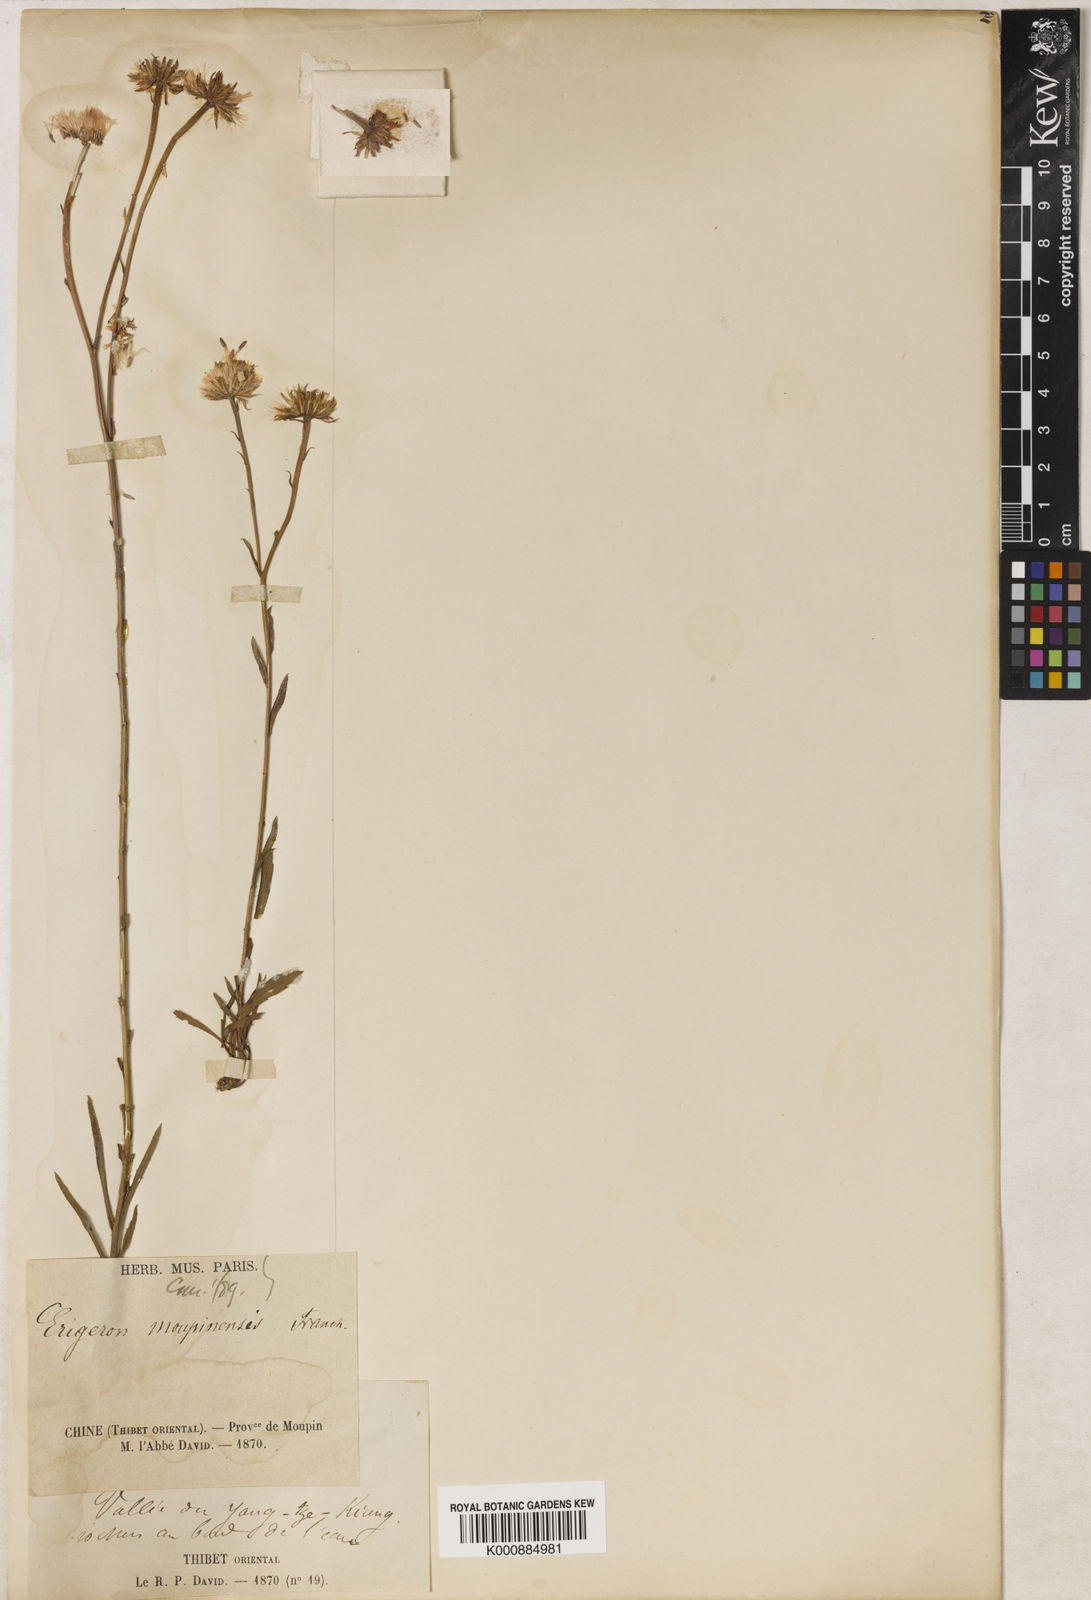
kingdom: Plantae
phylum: Tracheophyta
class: Magnoliopsida
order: Asterales
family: Asteraceae
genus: Erigeron
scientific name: Erigeron
